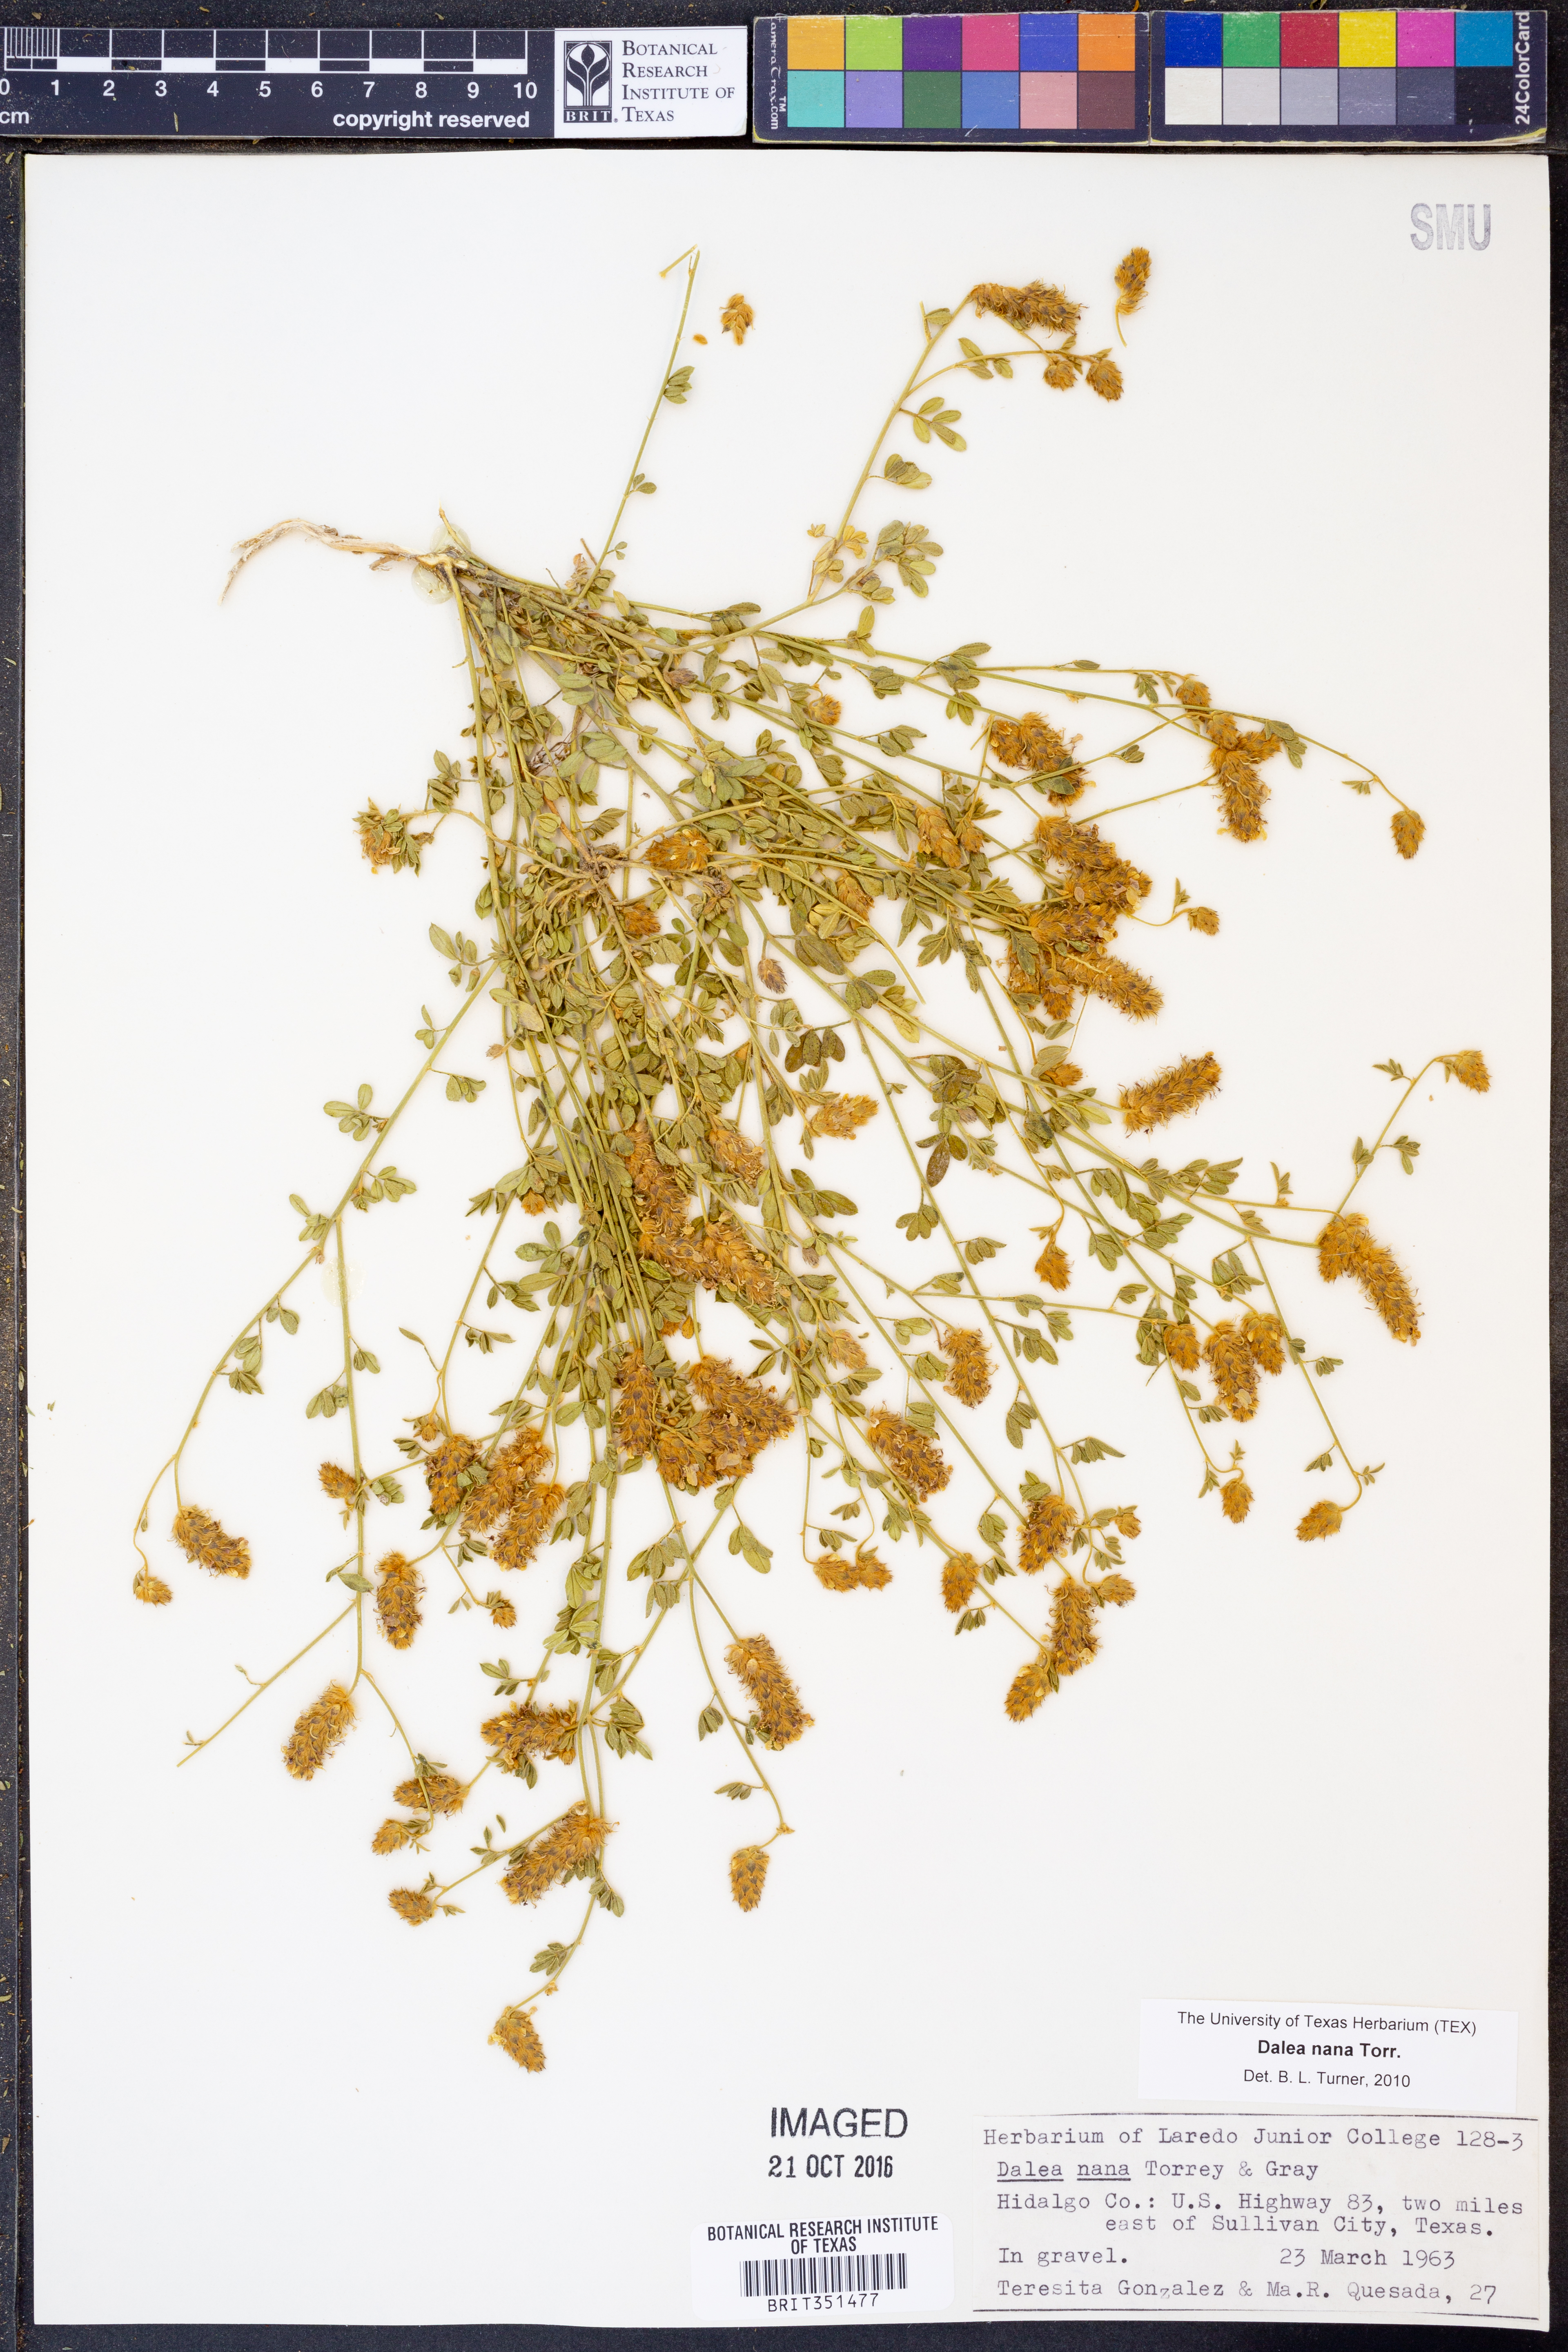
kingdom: Plantae
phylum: Tracheophyta
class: Magnoliopsida
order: Fabales
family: Fabaceae
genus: Dalea
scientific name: Dalea nana
